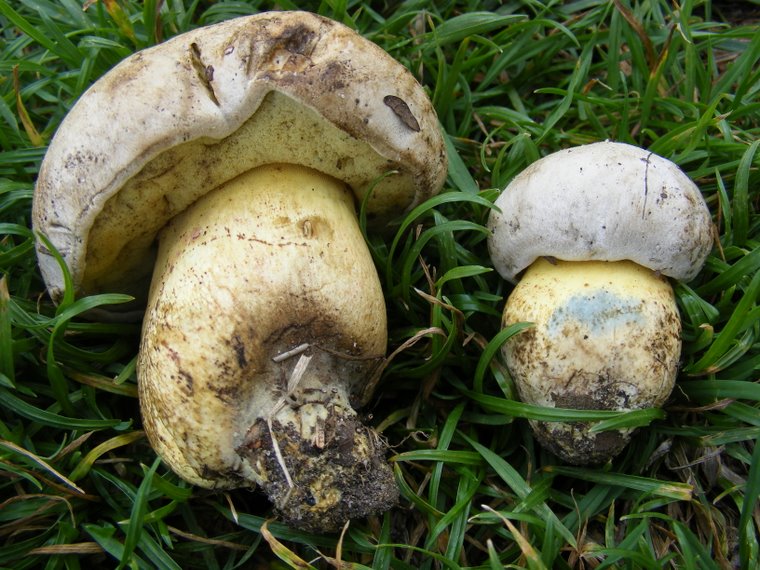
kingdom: Fungi
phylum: Basidiomycota
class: Agaricomycetes
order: Boletales
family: Boletaceae
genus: Caloboletus
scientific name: Caloboletus radicans
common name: rod-rørhat
